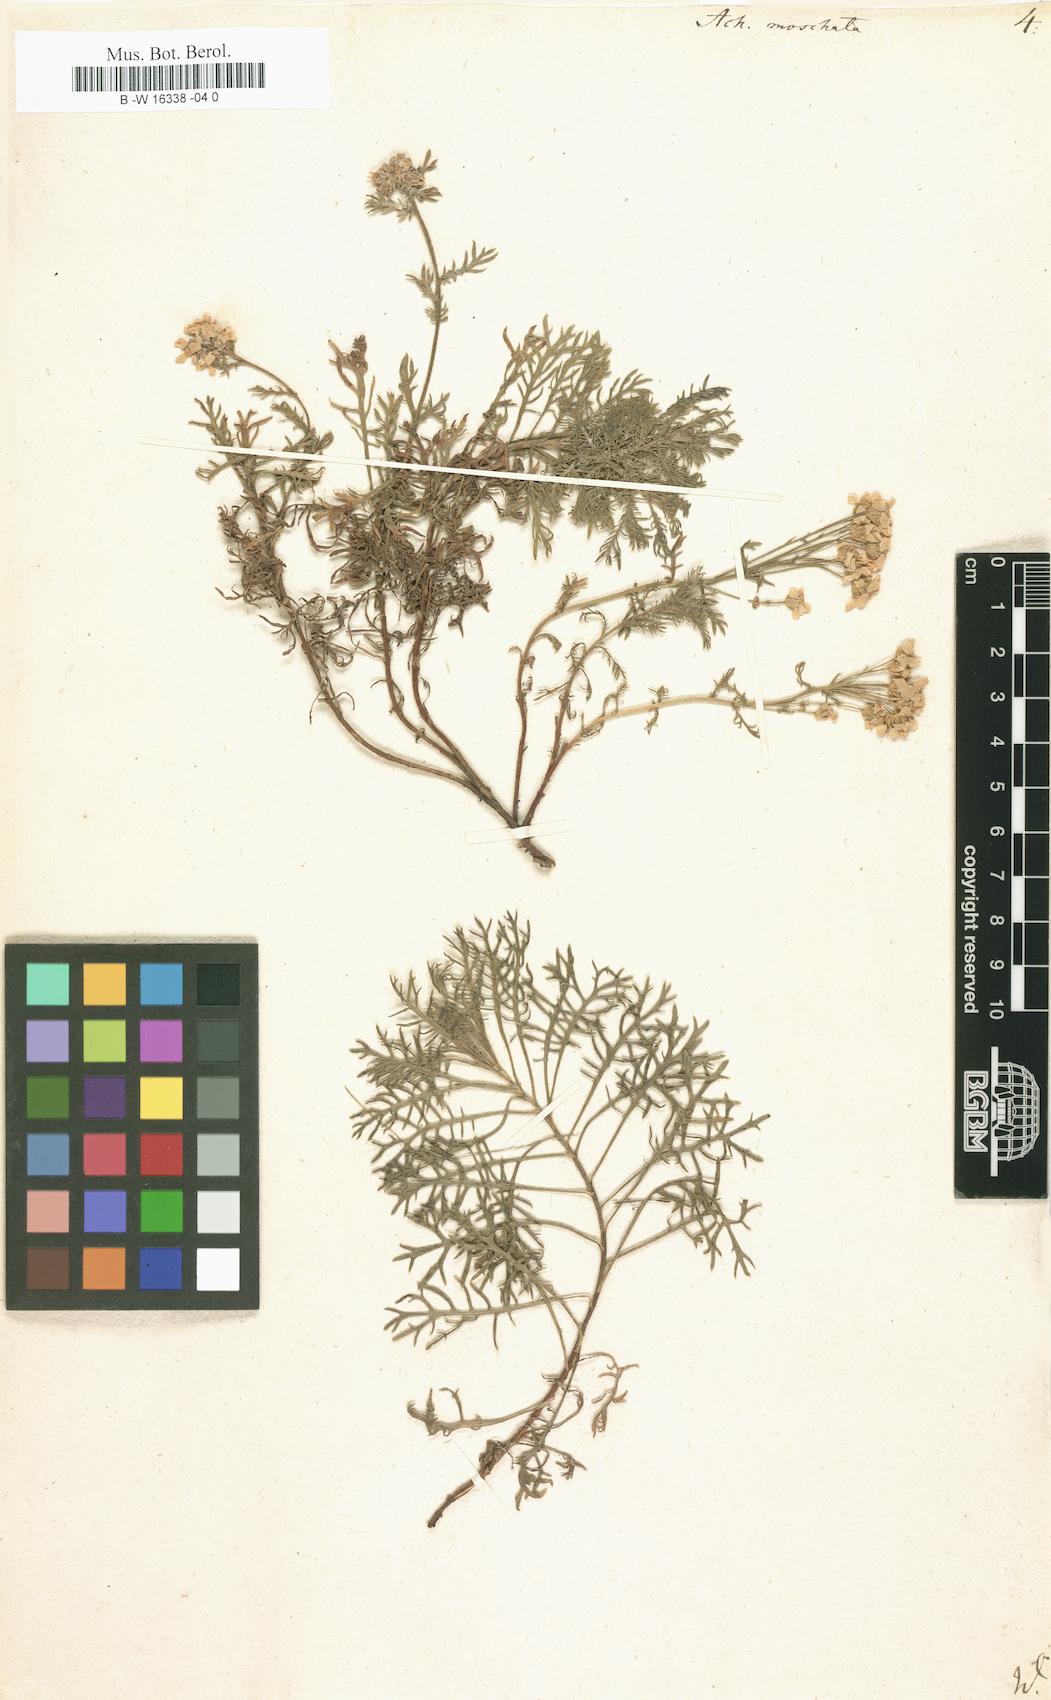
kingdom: Plantae
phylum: Tracheophyta
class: Magnoliopsida
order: Asterales
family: Asteraceae
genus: Achillea
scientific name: Achillea erba-rotta
